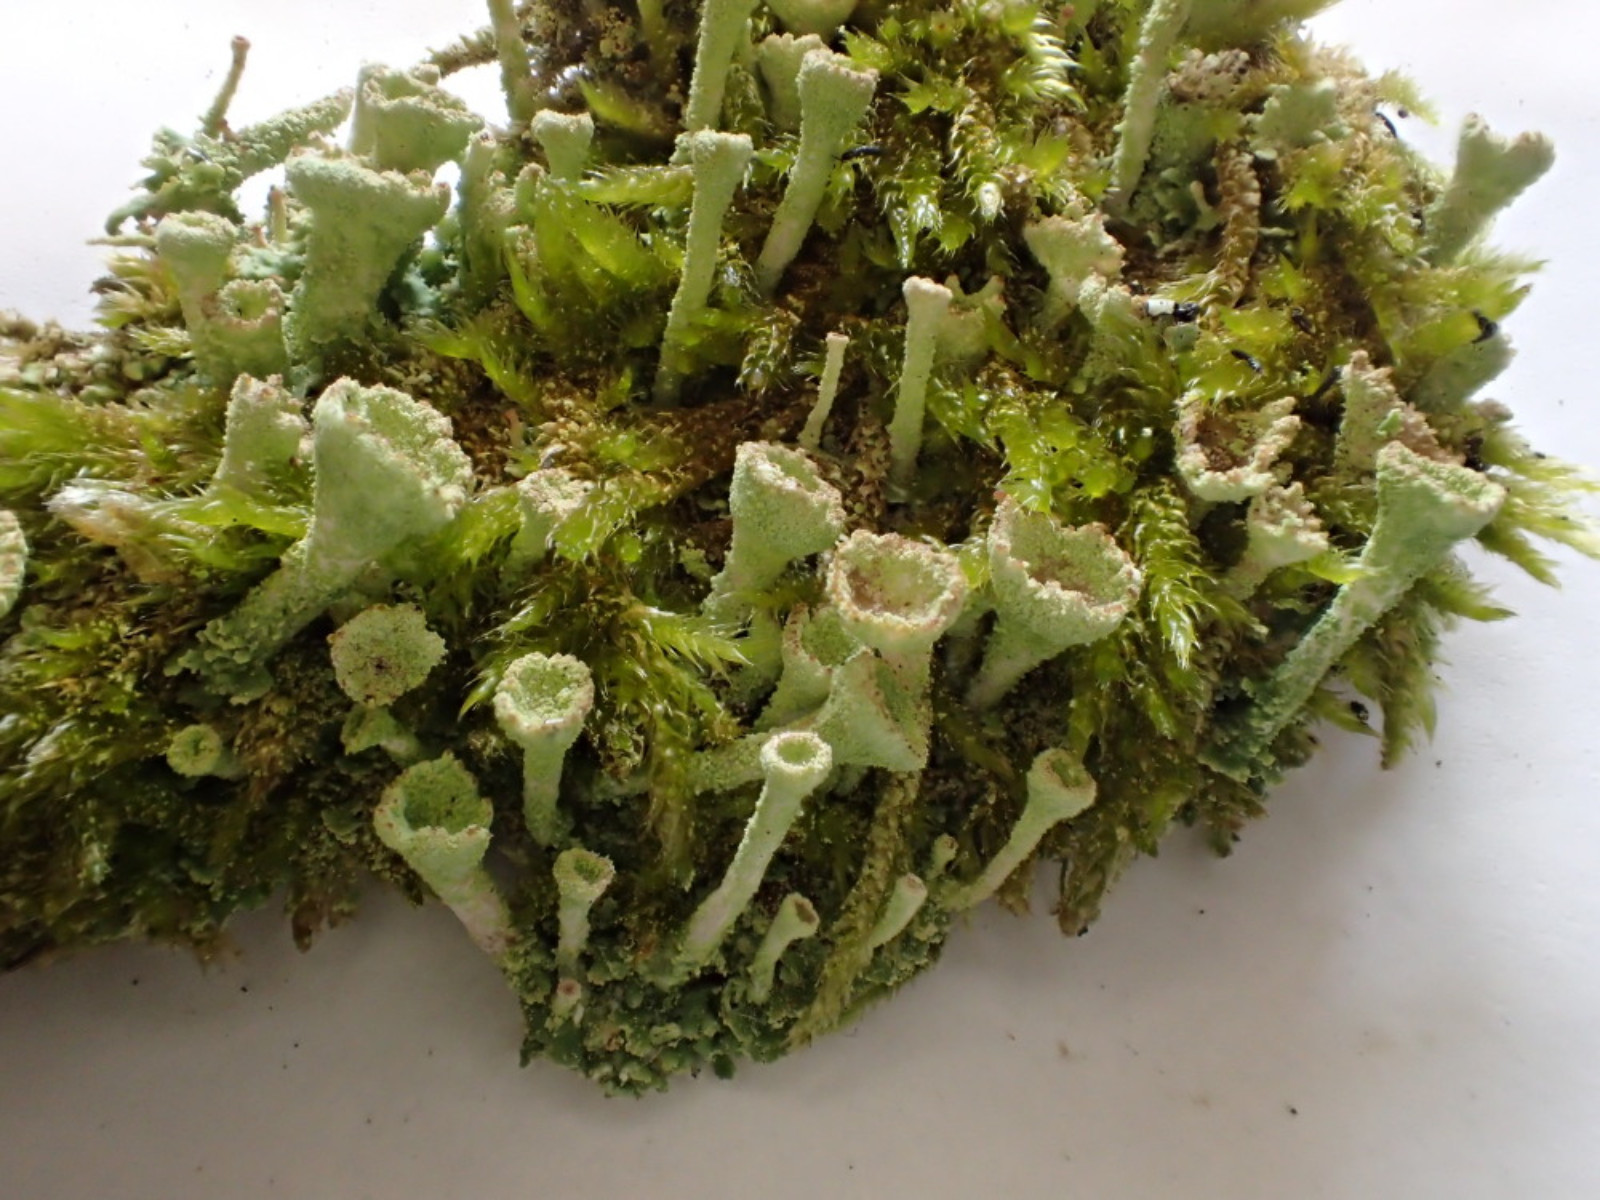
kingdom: Fungi
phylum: Ascomycota
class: Lecanoromycetes
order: Lecanorales
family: Cladoniaceae
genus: Cladonia
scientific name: Cladonia
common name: brungrøn bægerlav
